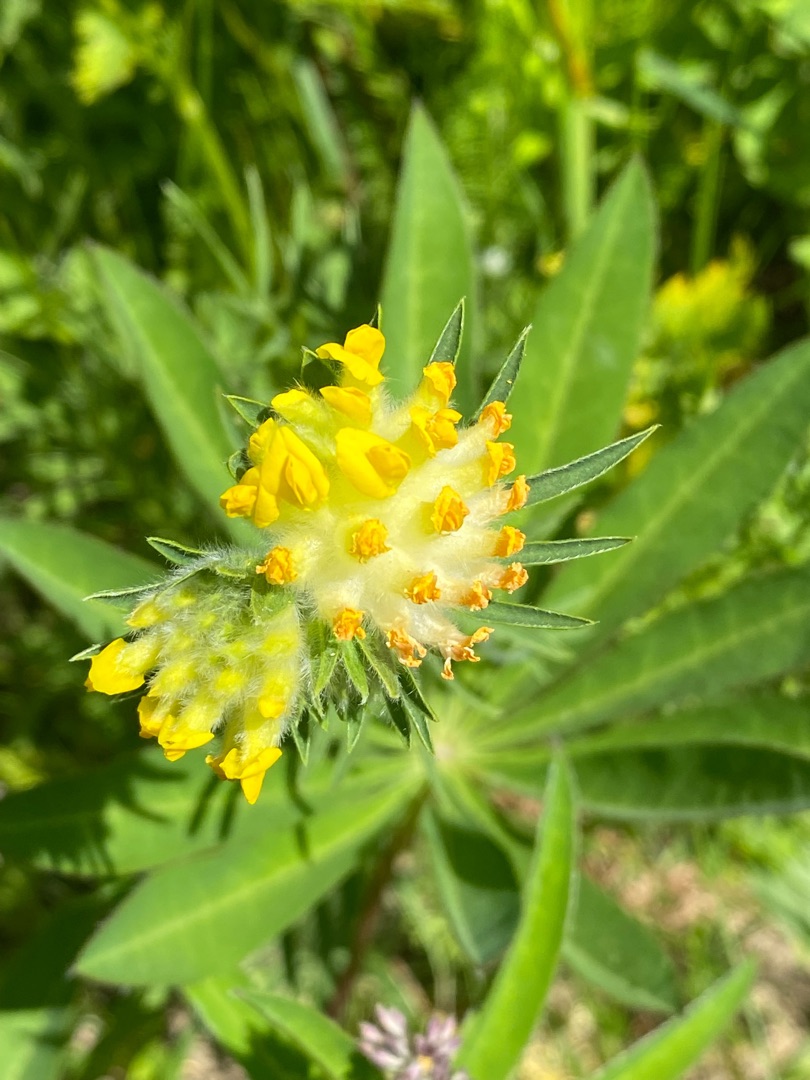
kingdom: Plantae
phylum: Tracheophyta
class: Magnoliopsida
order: Fabales
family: Fabaceae
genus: Anthyllis
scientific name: Anthyllis vulneraria
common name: Rundbælg
